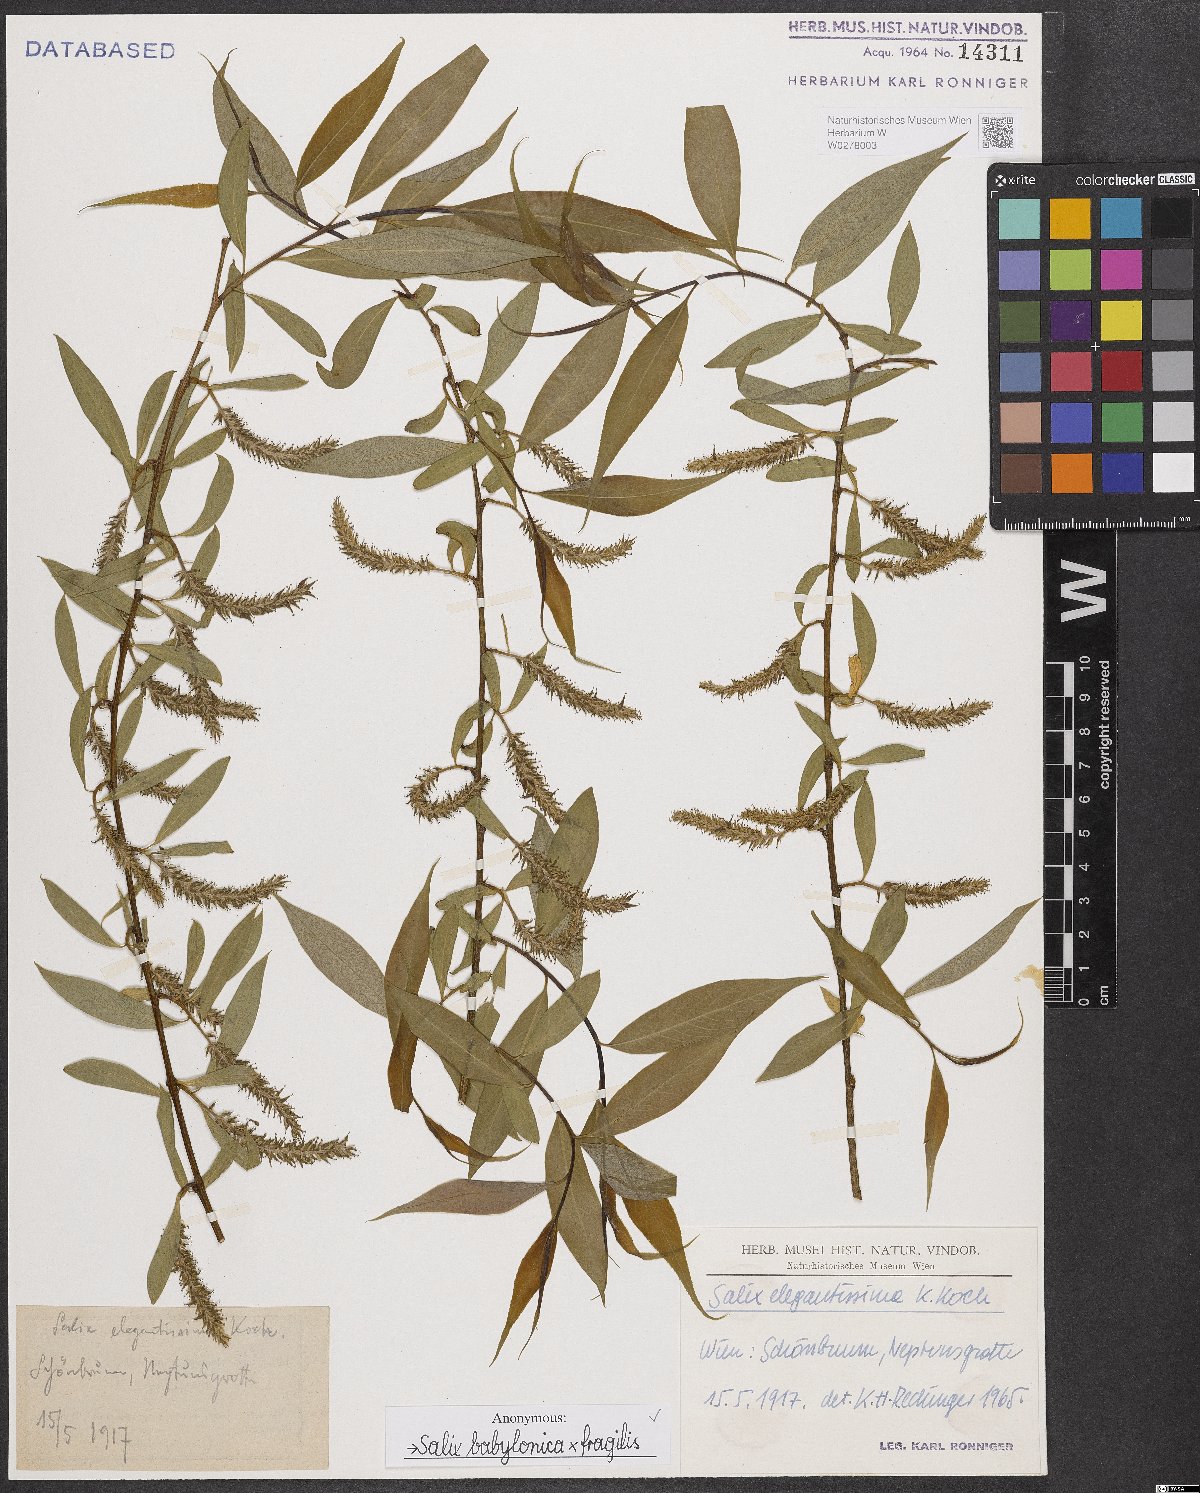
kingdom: Plantae
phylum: Tracheophyta
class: Magnoliopsida
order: Malpighiales
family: Salicaceae
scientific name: Salicaceae
